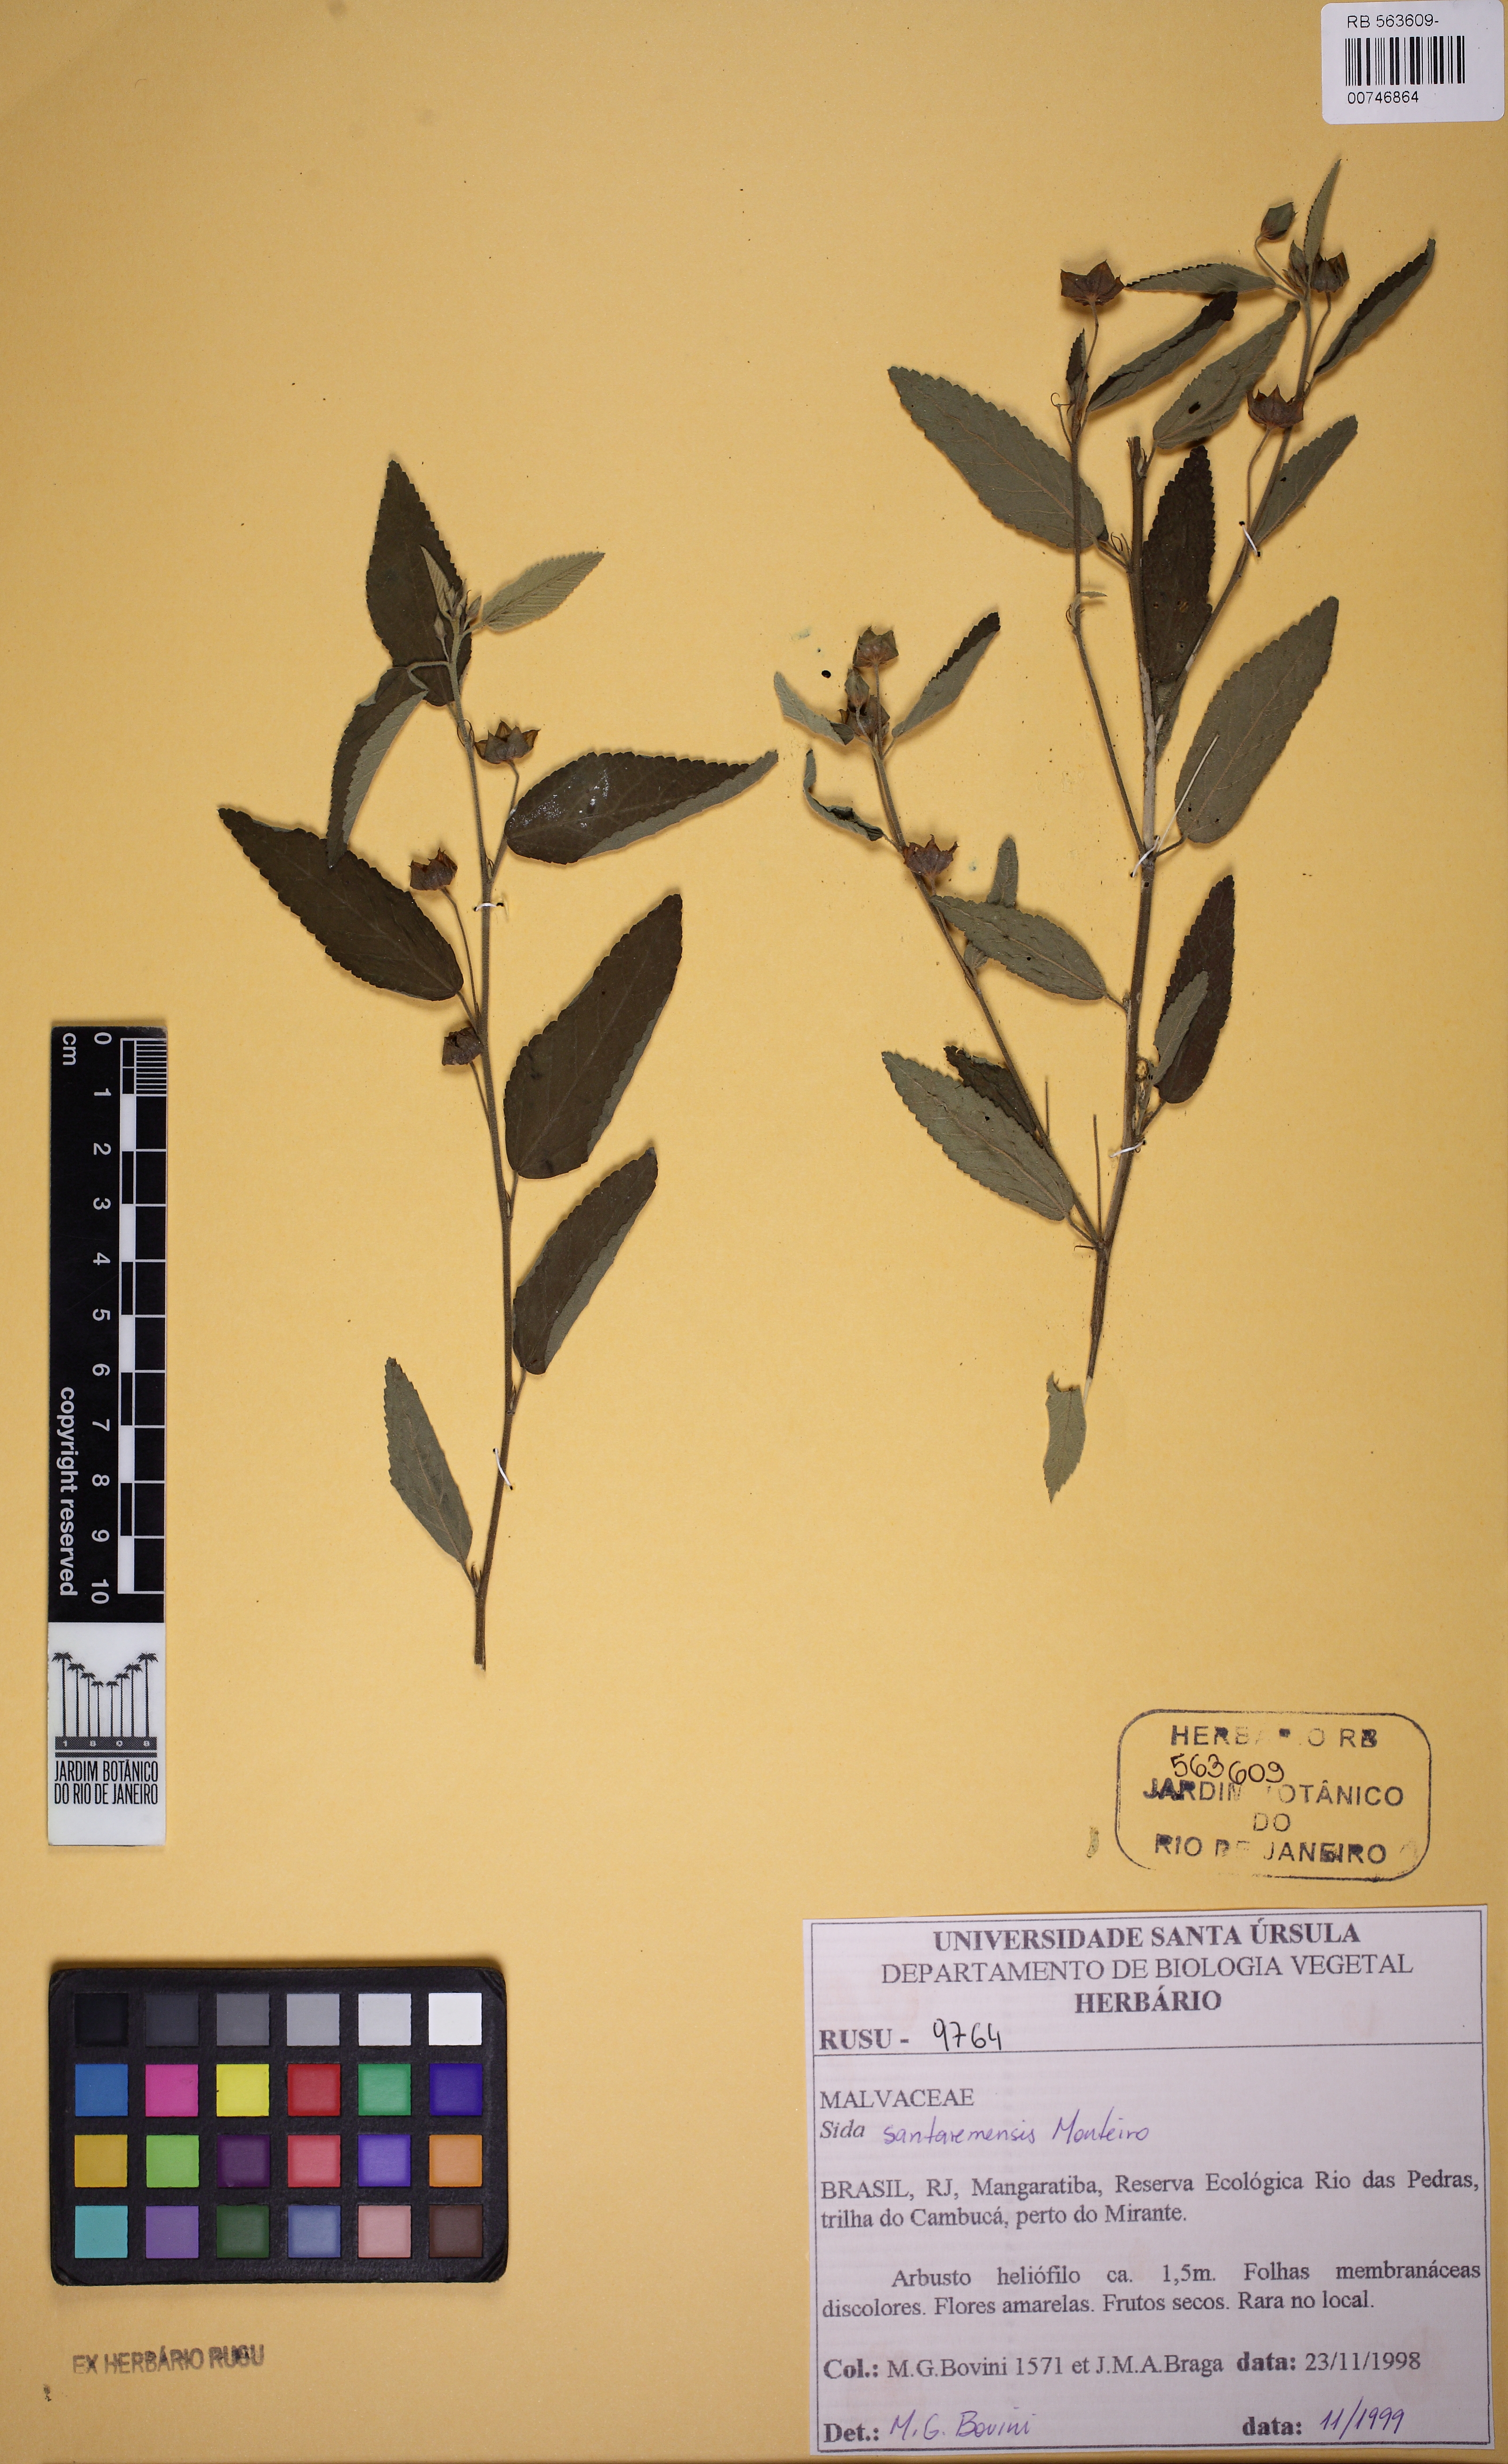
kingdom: Plantae
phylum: Tracheophyta
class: Magnoliopsida
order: Malvales
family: Malvaceae
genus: Sida
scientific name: Sida santaremensis
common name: Moth fanpetals
